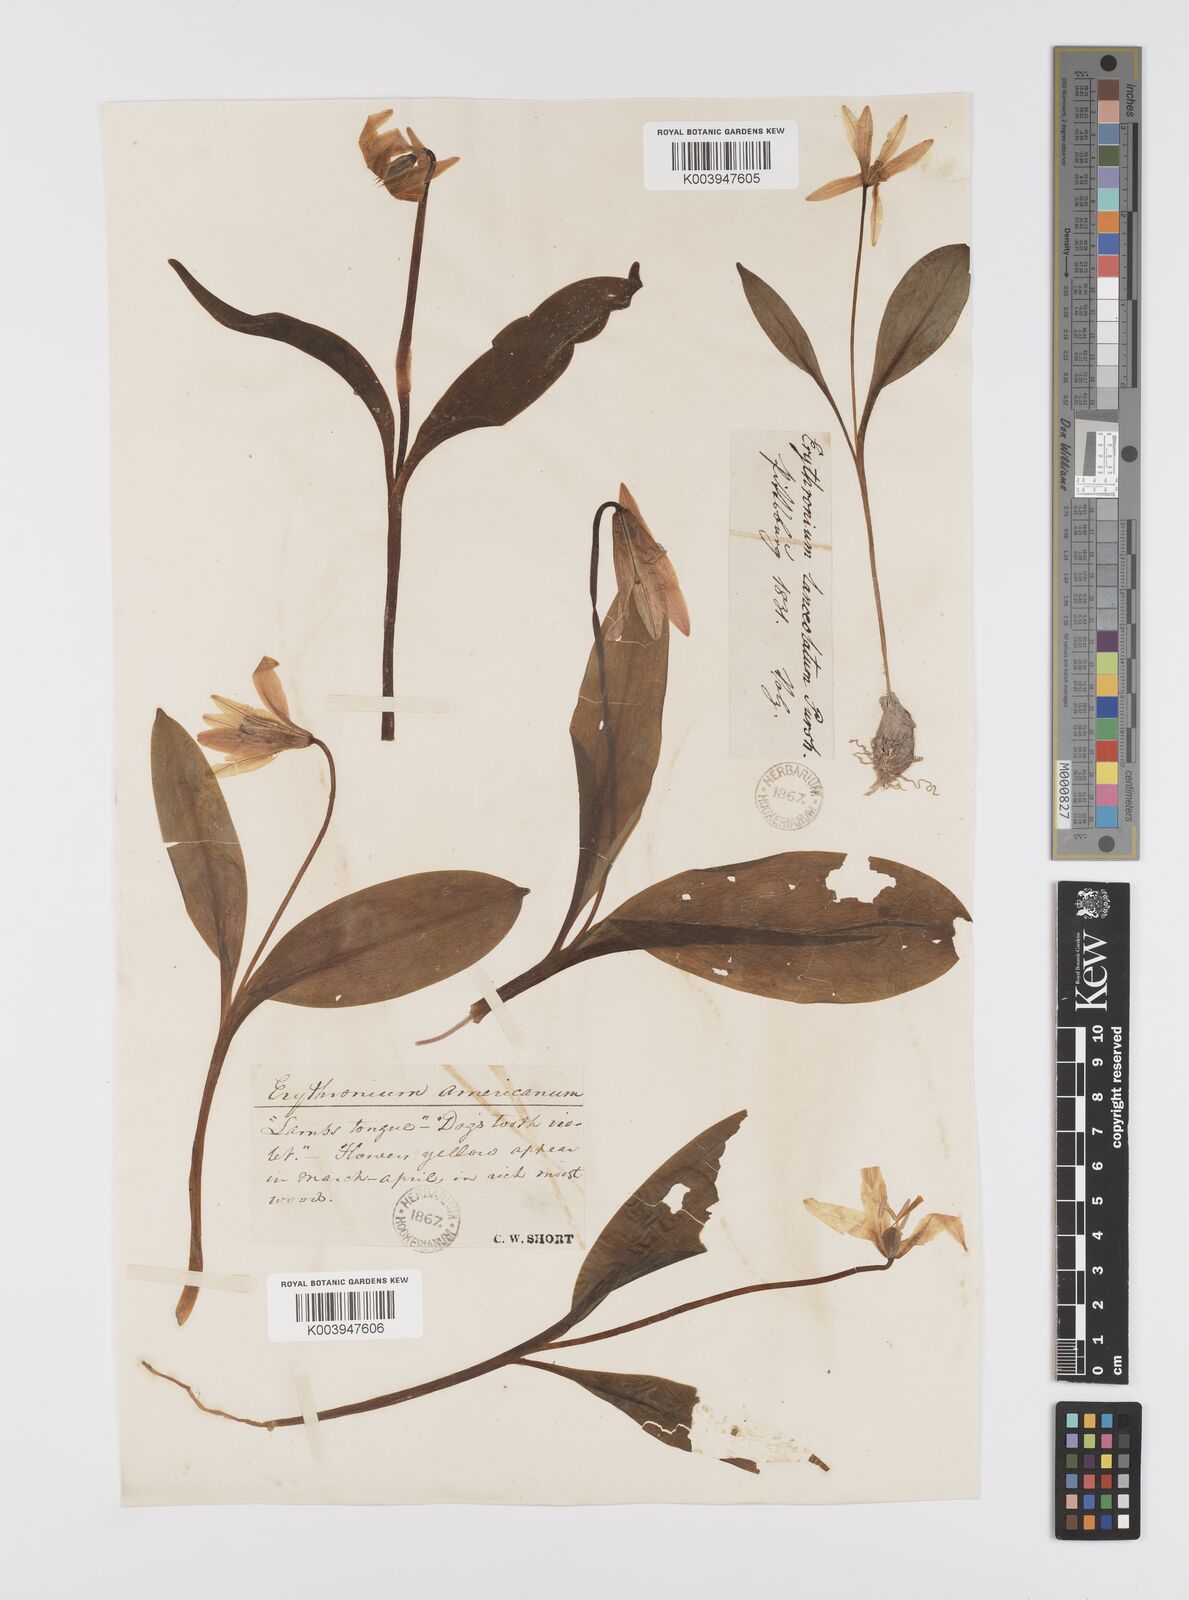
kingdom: Plantae
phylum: Tracheophyta
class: Liliopsida
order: Liliales
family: Liliaceae
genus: Erythronium
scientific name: Erythronium grandiflorum
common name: Avalanche-lily
